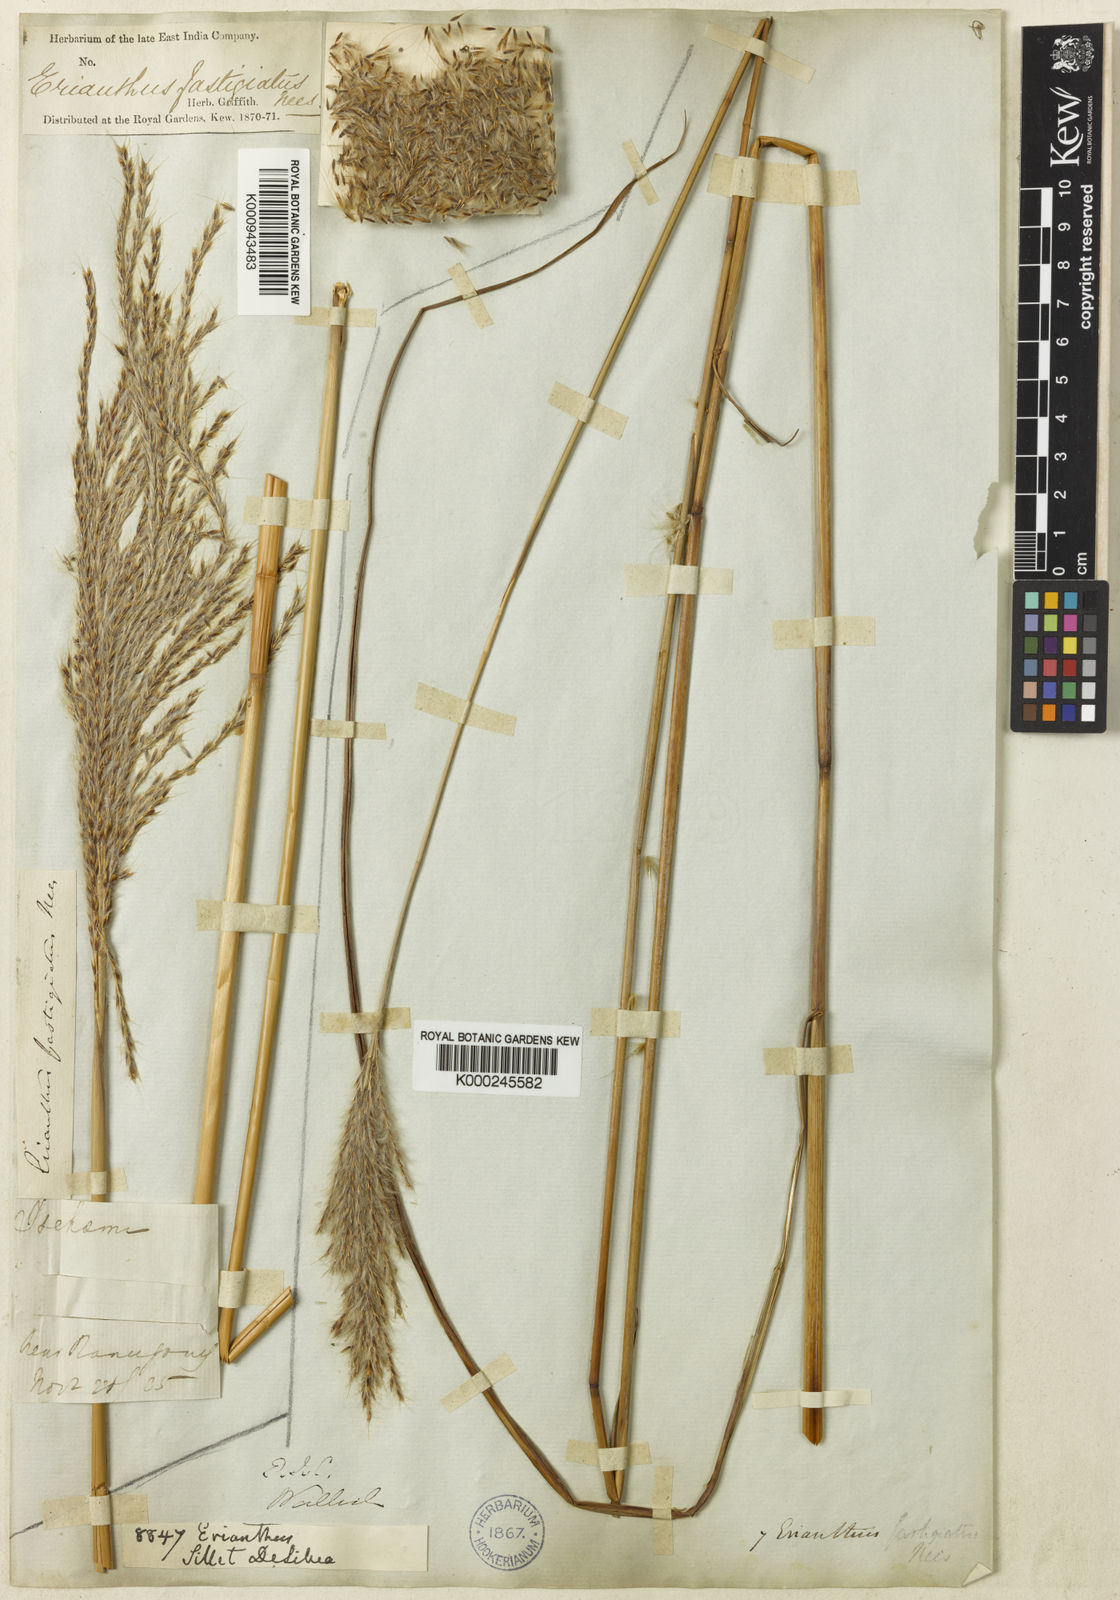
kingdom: Plantae
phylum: Tracheophyta
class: Liliopsida
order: Poales
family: Poaceae
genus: Eulalia
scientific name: Eulalia fastigiata
